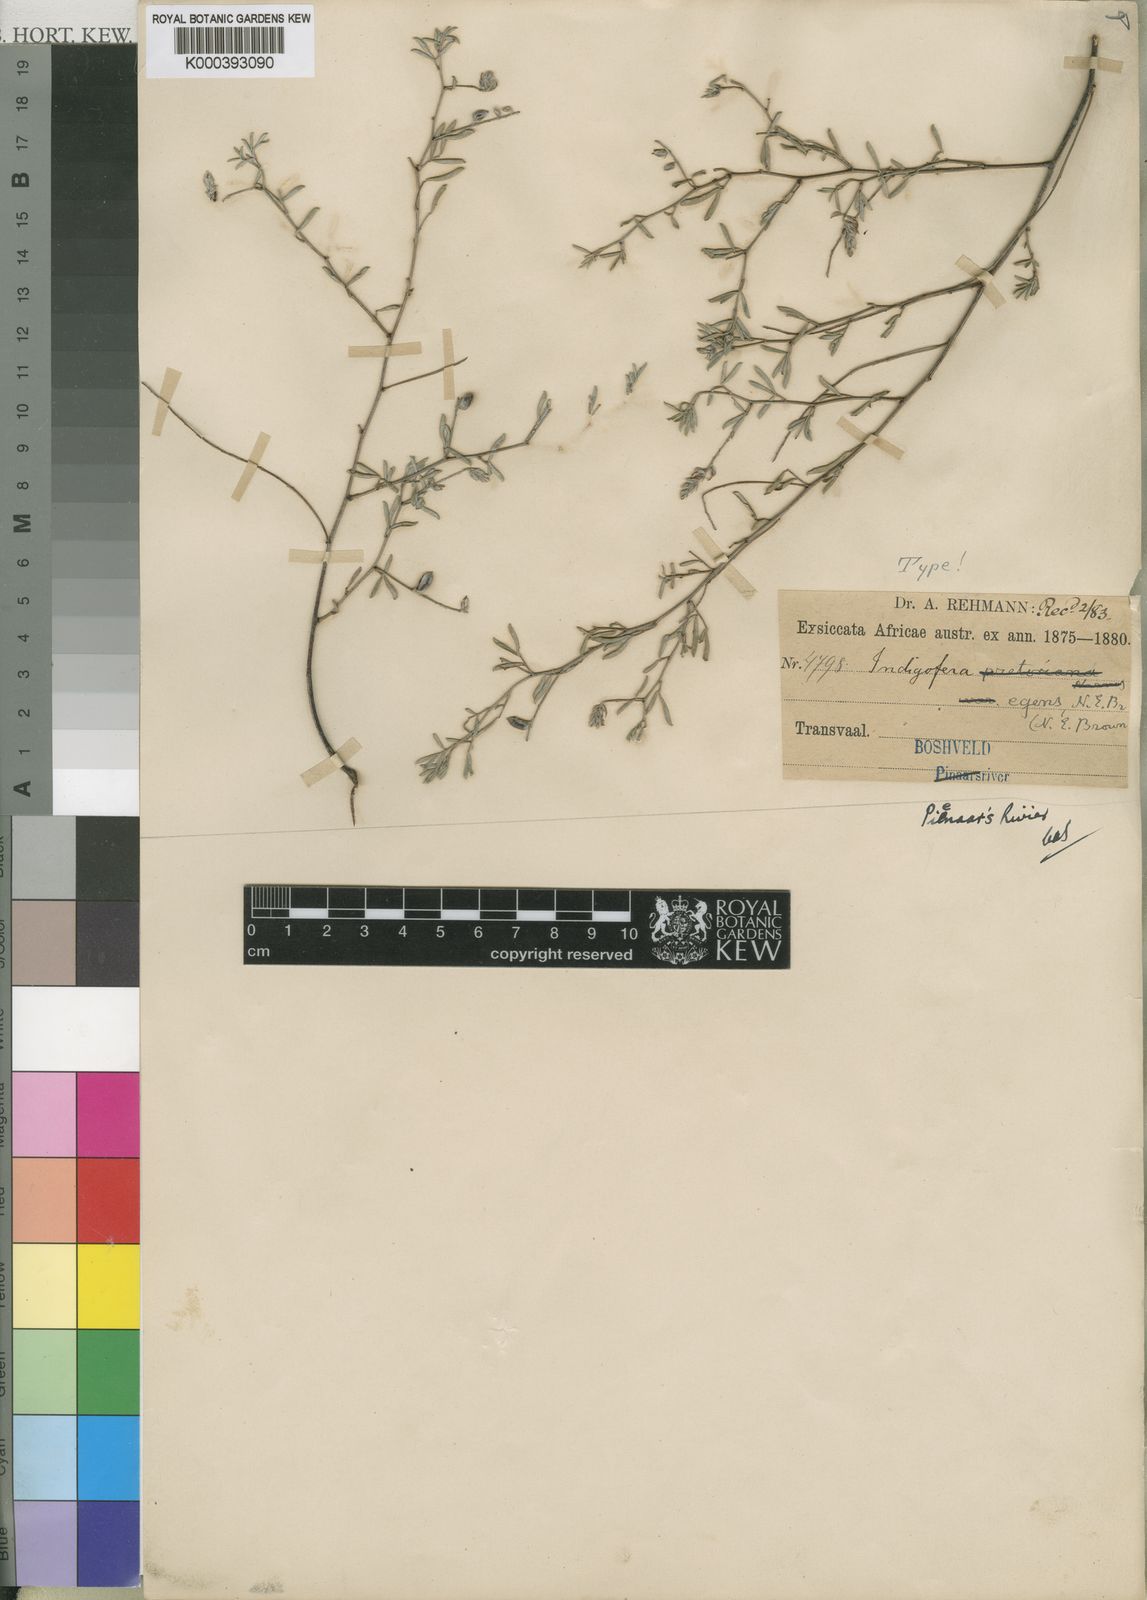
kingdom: Plantae
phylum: Tracheophyta
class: Magnoliopsida
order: Fabales
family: Fabaceae
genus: Indigofera
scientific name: Indigofera egens
